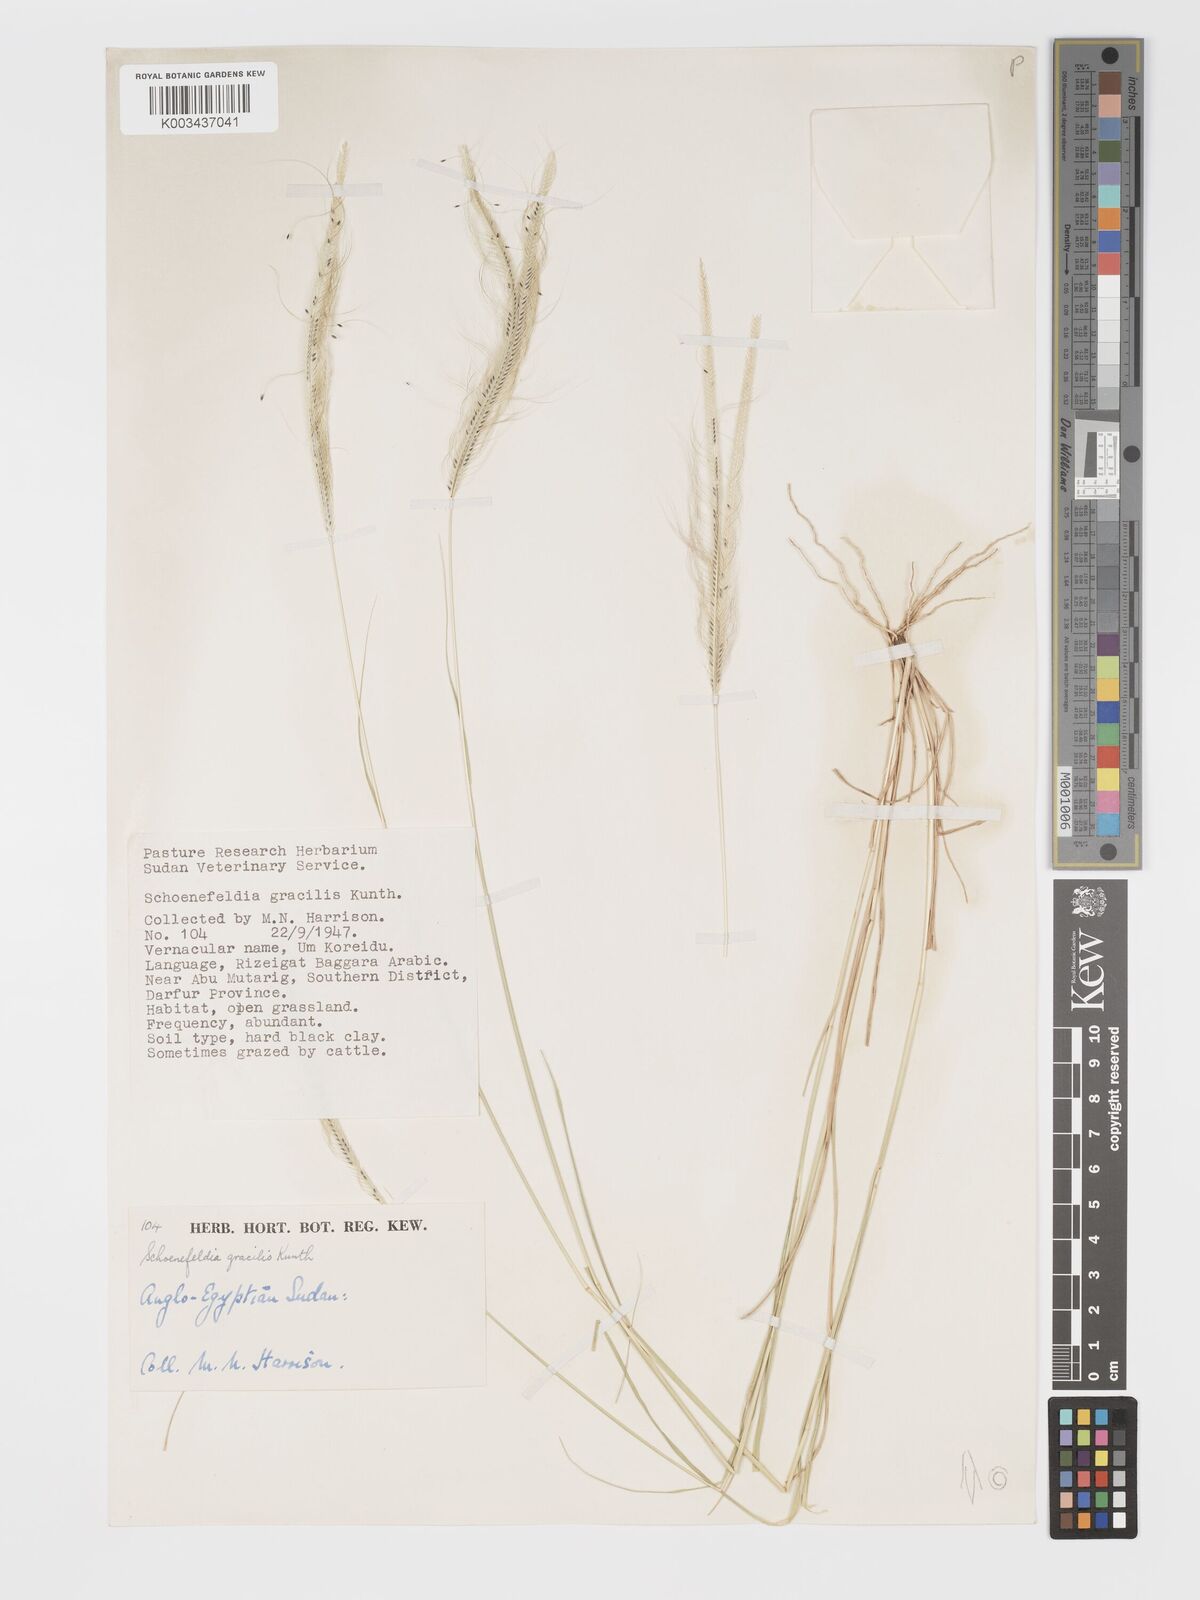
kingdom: Plantae
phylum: Tracheophyta
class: Liliopsida
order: Poales
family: Poaceae
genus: Schoenefeldia
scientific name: Schoenefeldia gracilis
